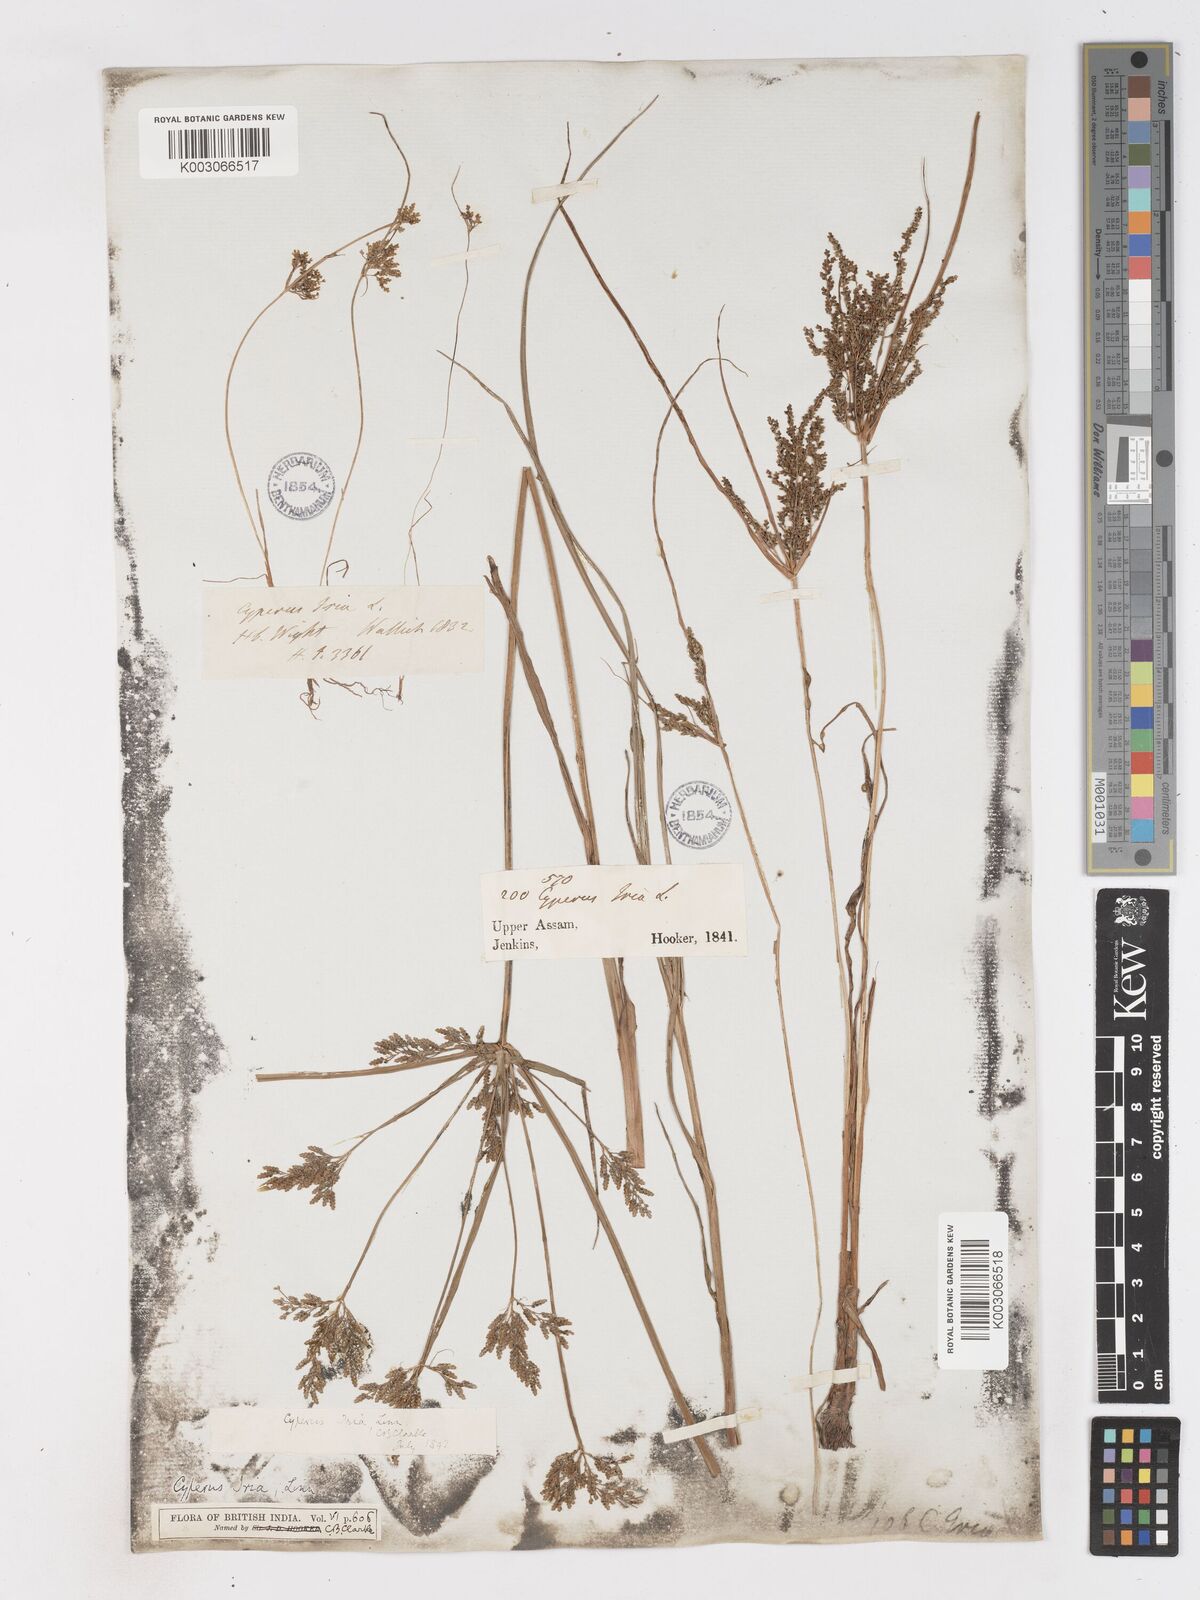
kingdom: Plantae
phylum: Tracheophyta
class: Liliopsida
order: Poales
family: Cyperaceae
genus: Cyperus
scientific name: Cyperus iria
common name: Ricefield flatsedge
